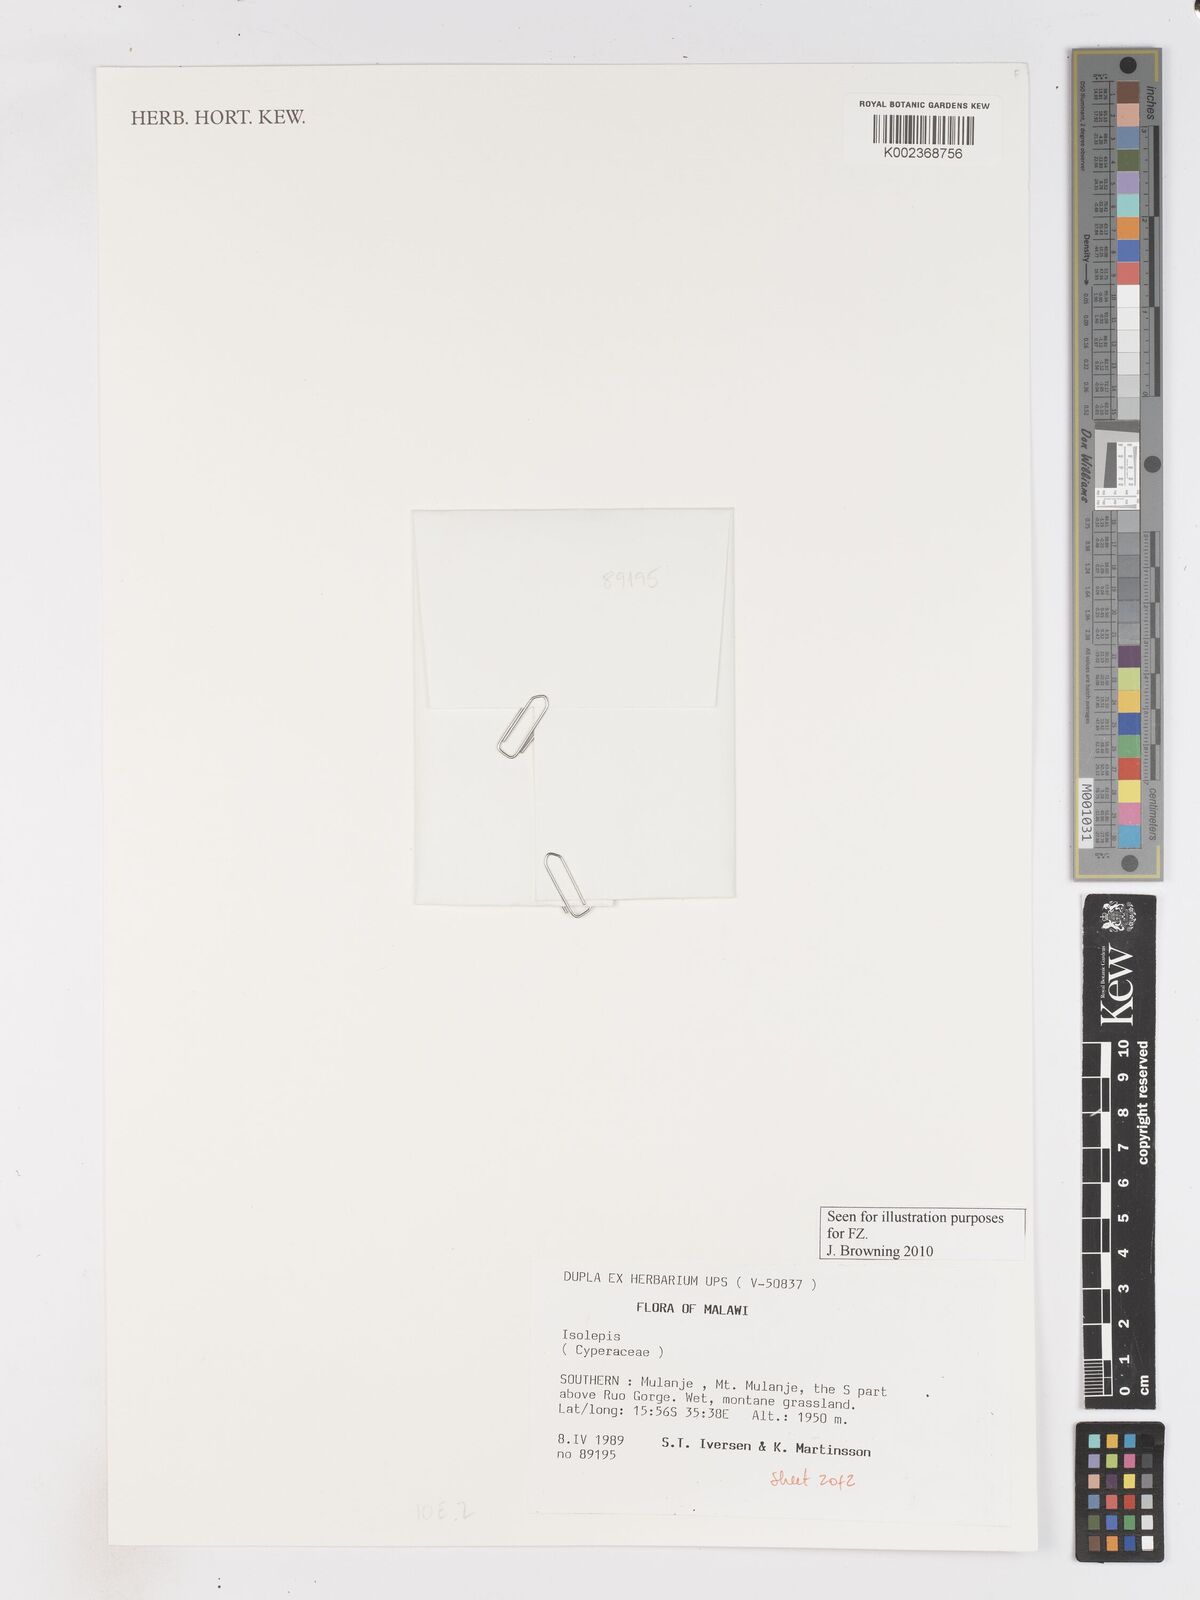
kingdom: Plantae
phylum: Tracheophyta
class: Liliopsida
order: Poales
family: Cyperaceae
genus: Isolepis
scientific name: Isolepis fluitans
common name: Floating club-rush
